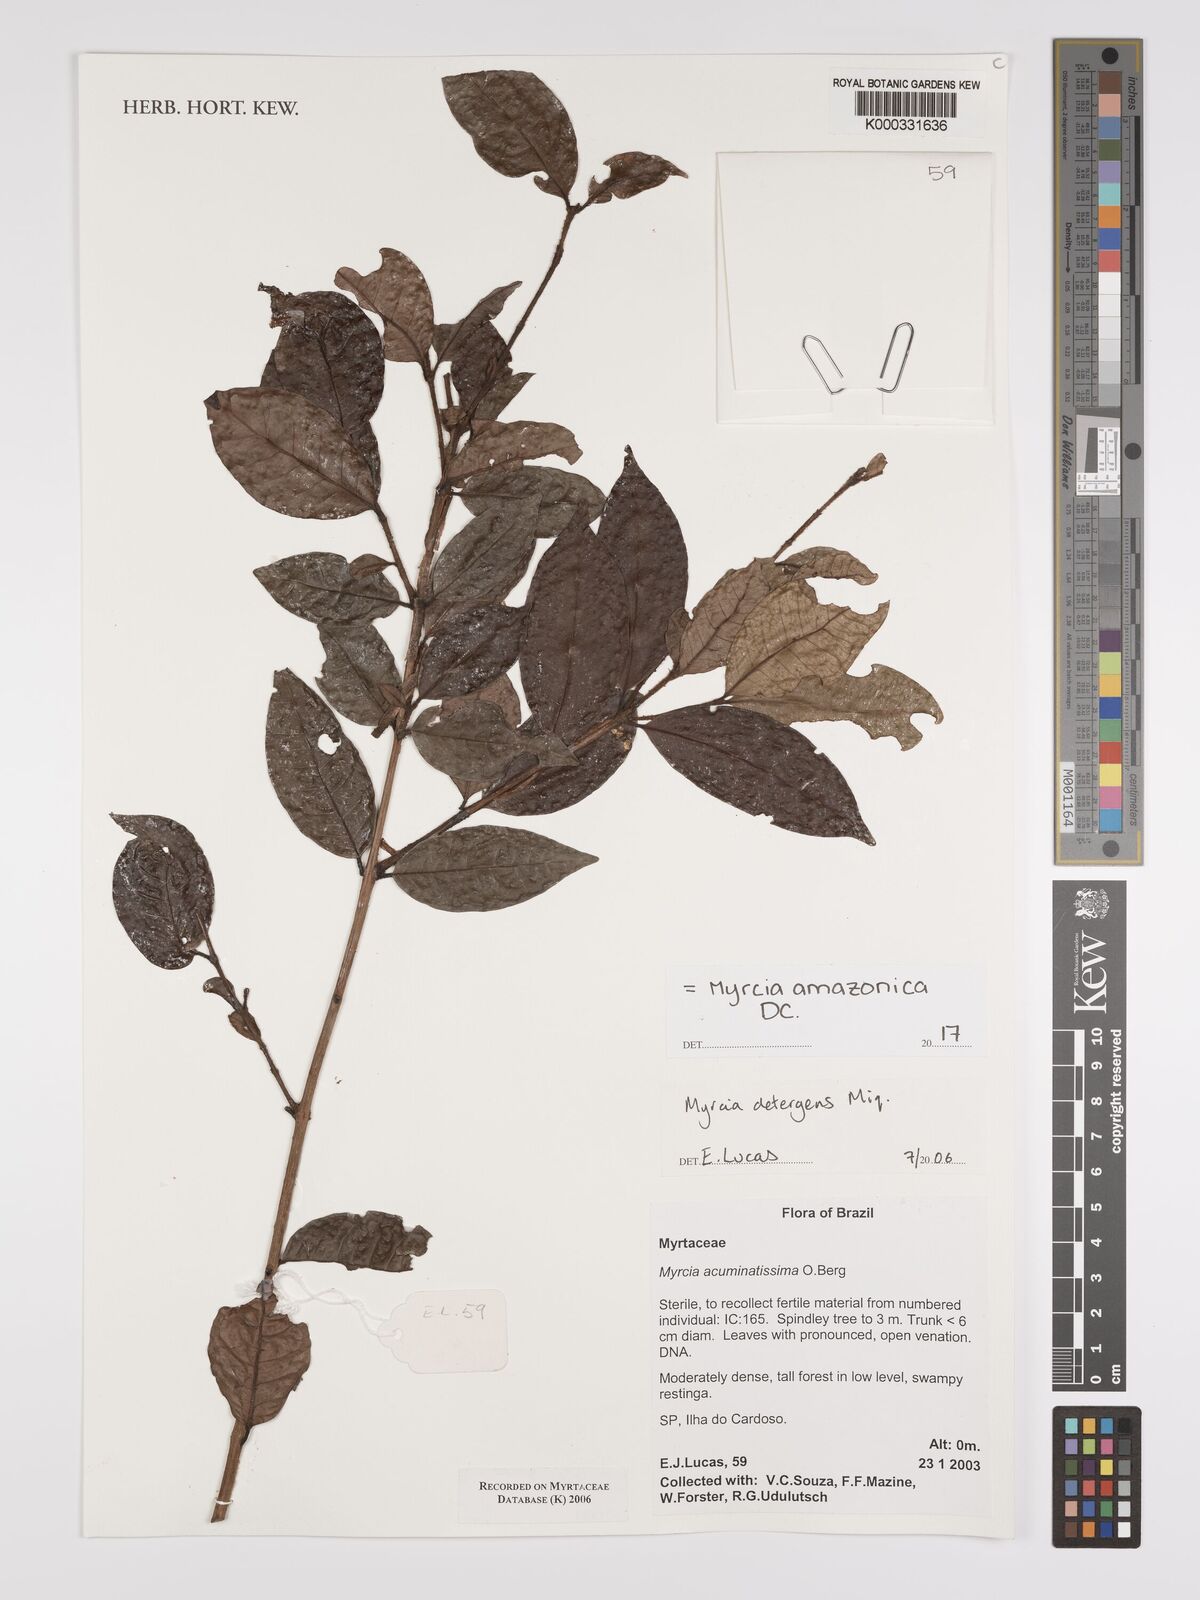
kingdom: Plantae
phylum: Tracheophyta
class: Magnoliopsida
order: Myrtales
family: Myrtaceae
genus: Myrcia
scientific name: Myrcia amazonica
